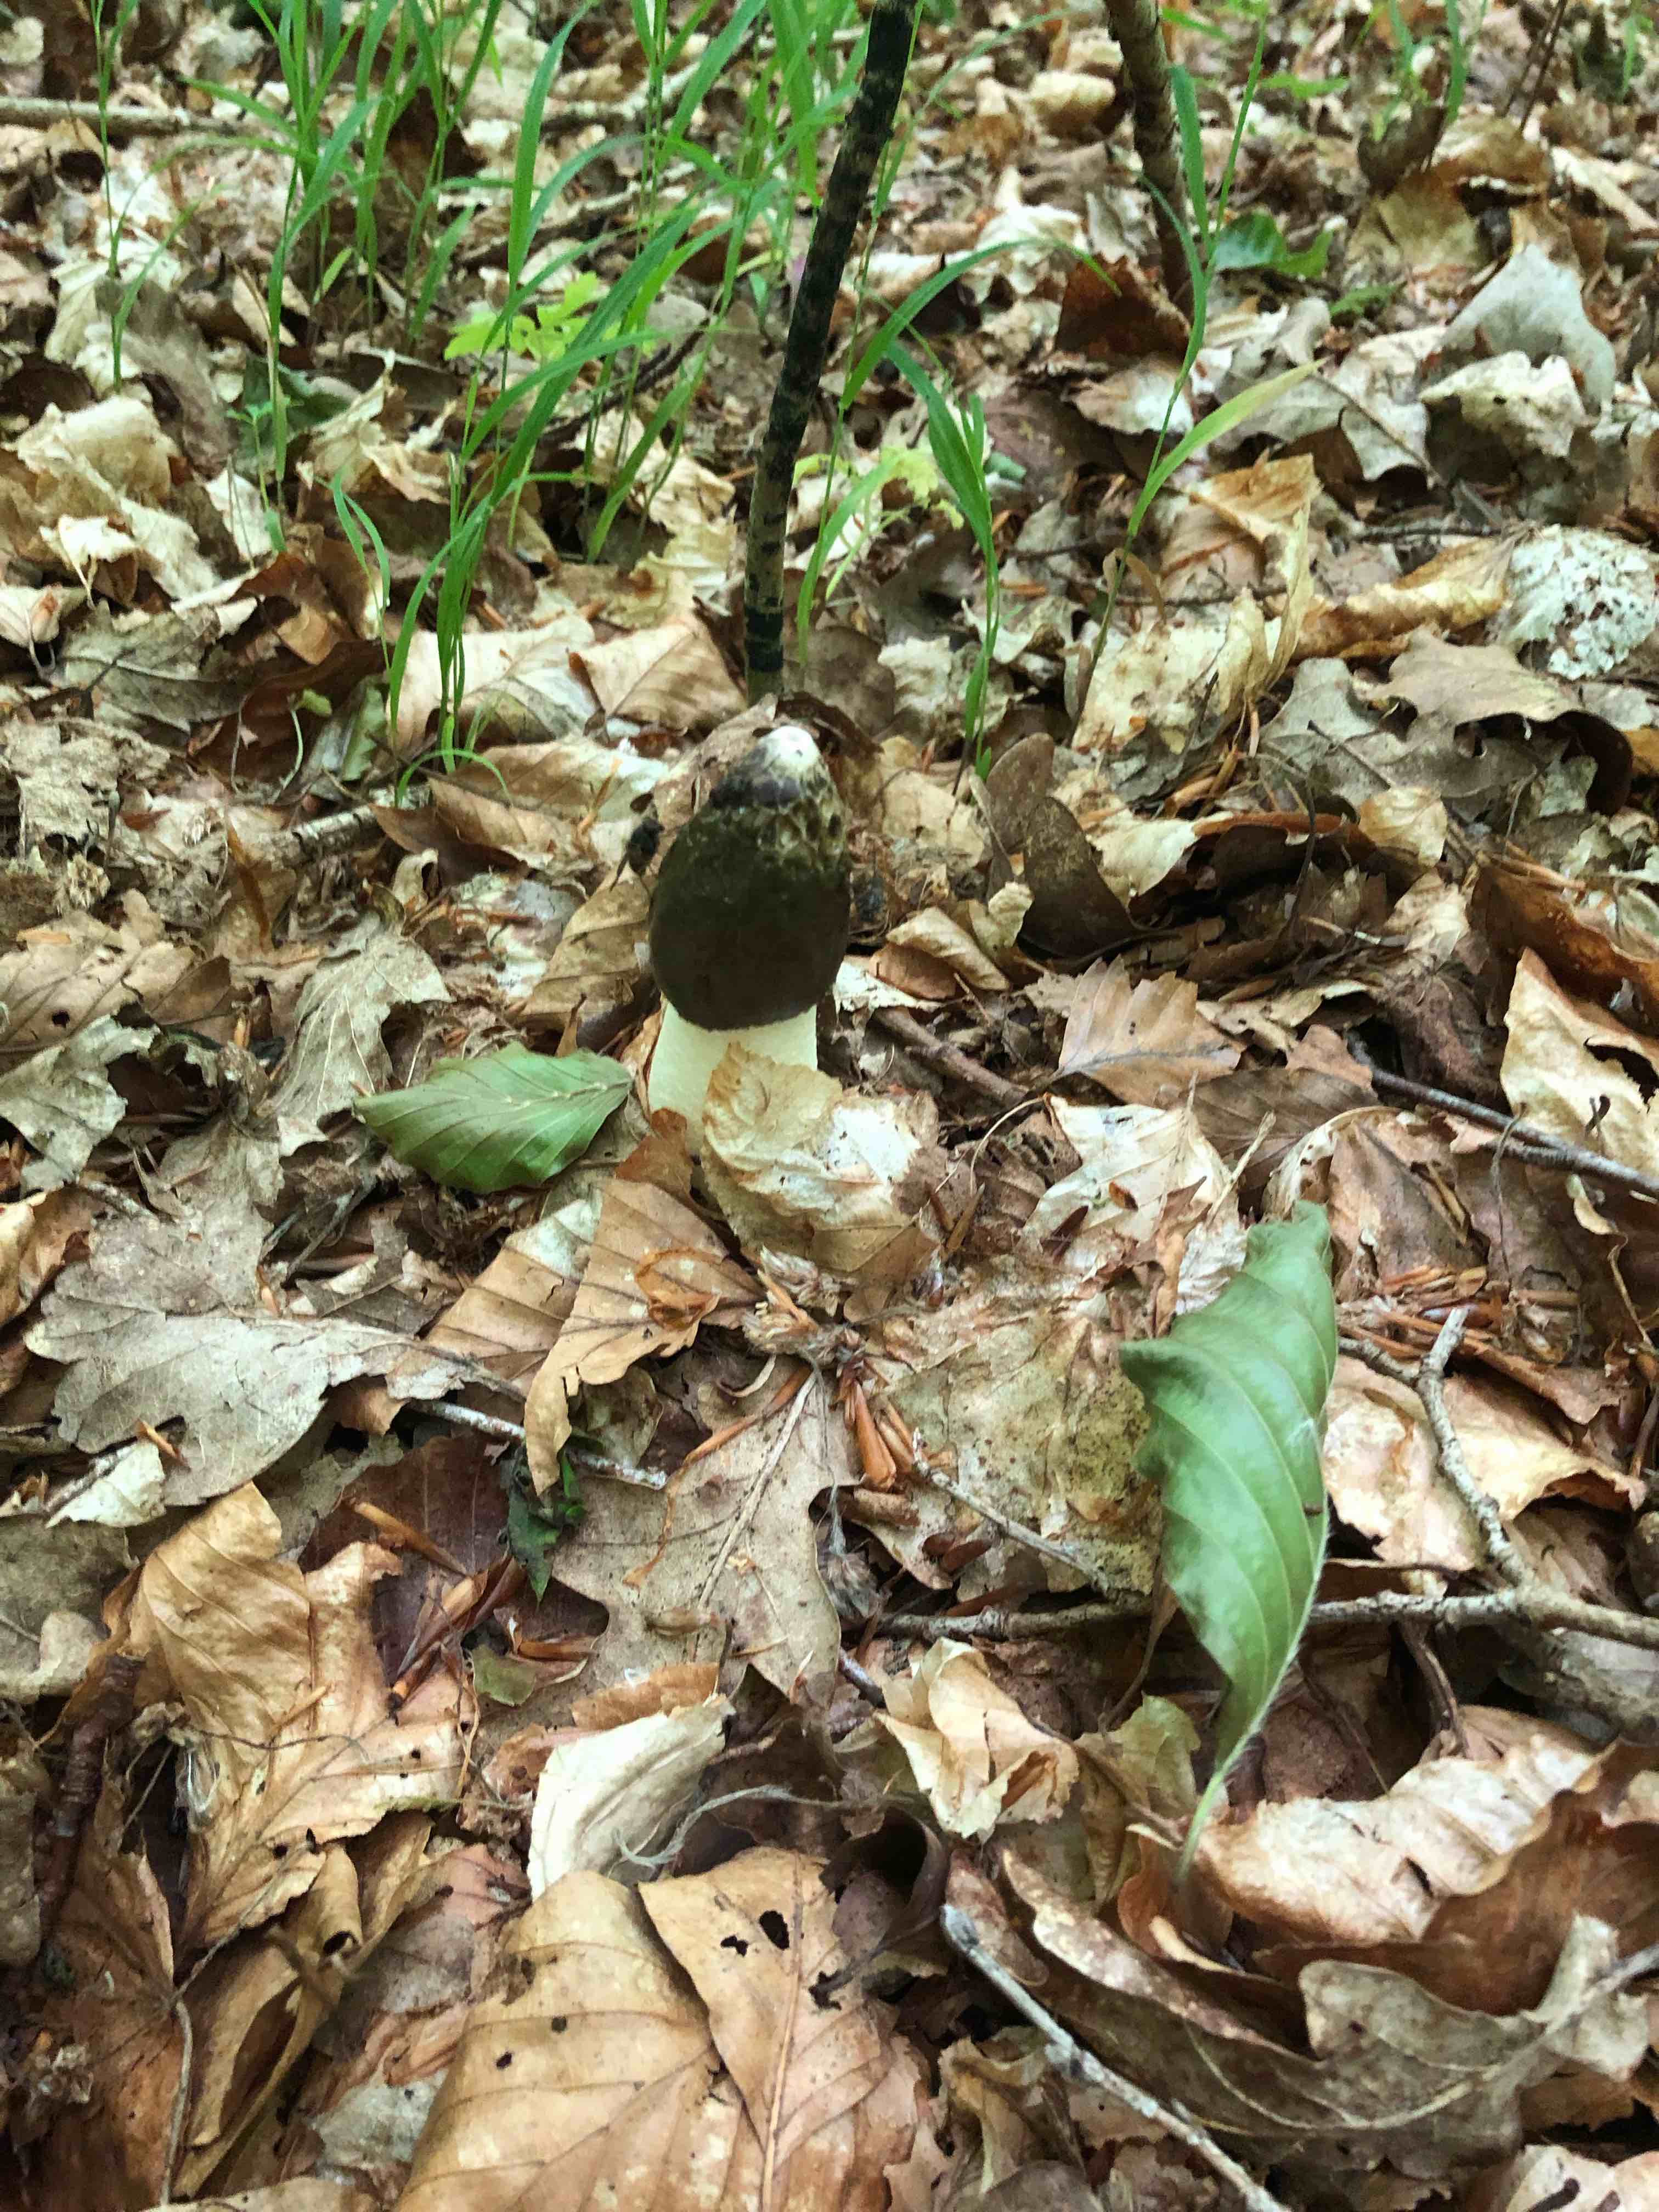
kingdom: Fungi
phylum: Basidiomycota
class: Agaricomycetes
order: Phallales
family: Phallaceae
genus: Phallus
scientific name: Phallus impudicus
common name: almindelig stinksvamp
